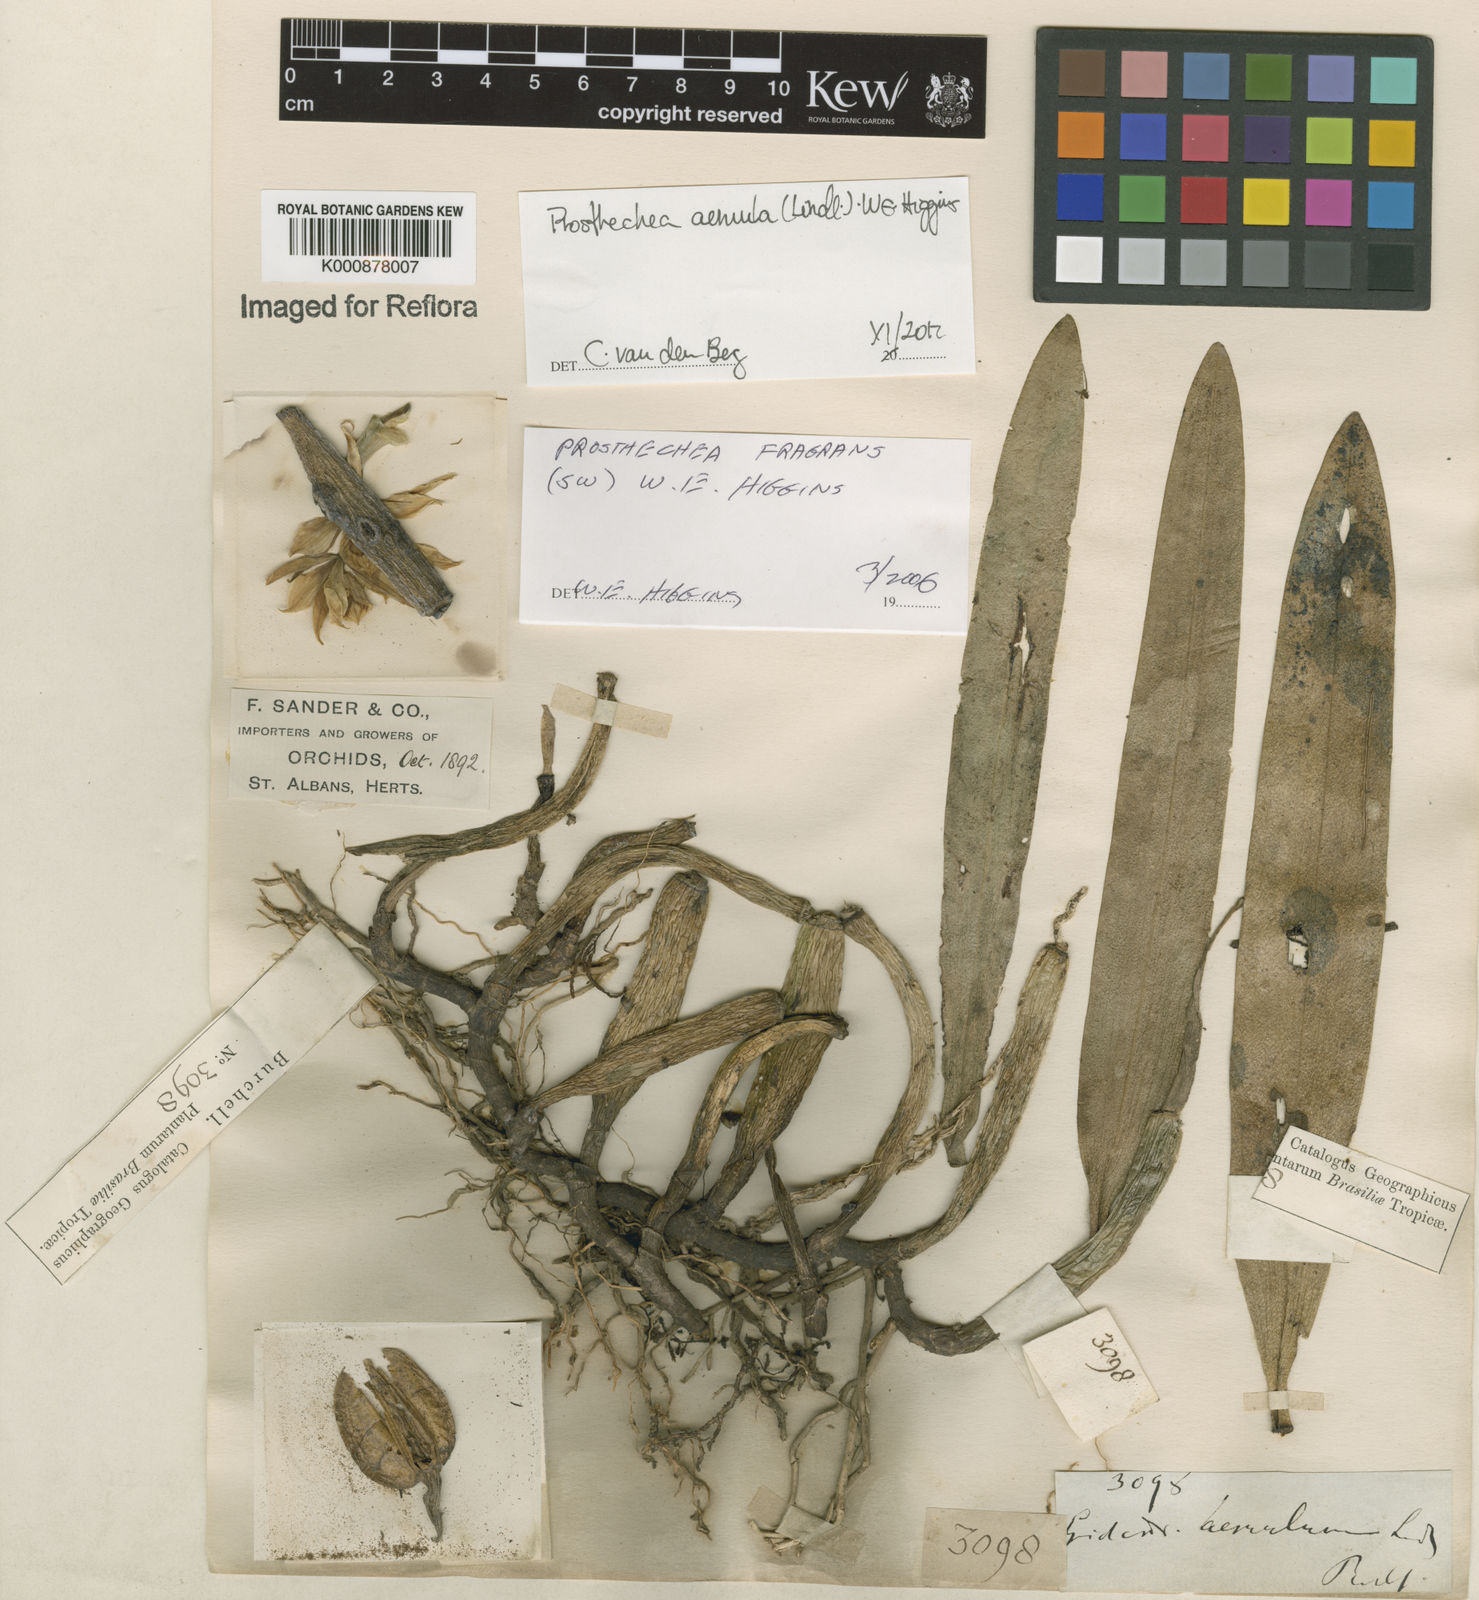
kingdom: Plantae
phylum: Tracheophyta
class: Liliopsida
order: Asparagales
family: Orchidaceae
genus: Prosthechea
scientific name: Prosthechea aemula
